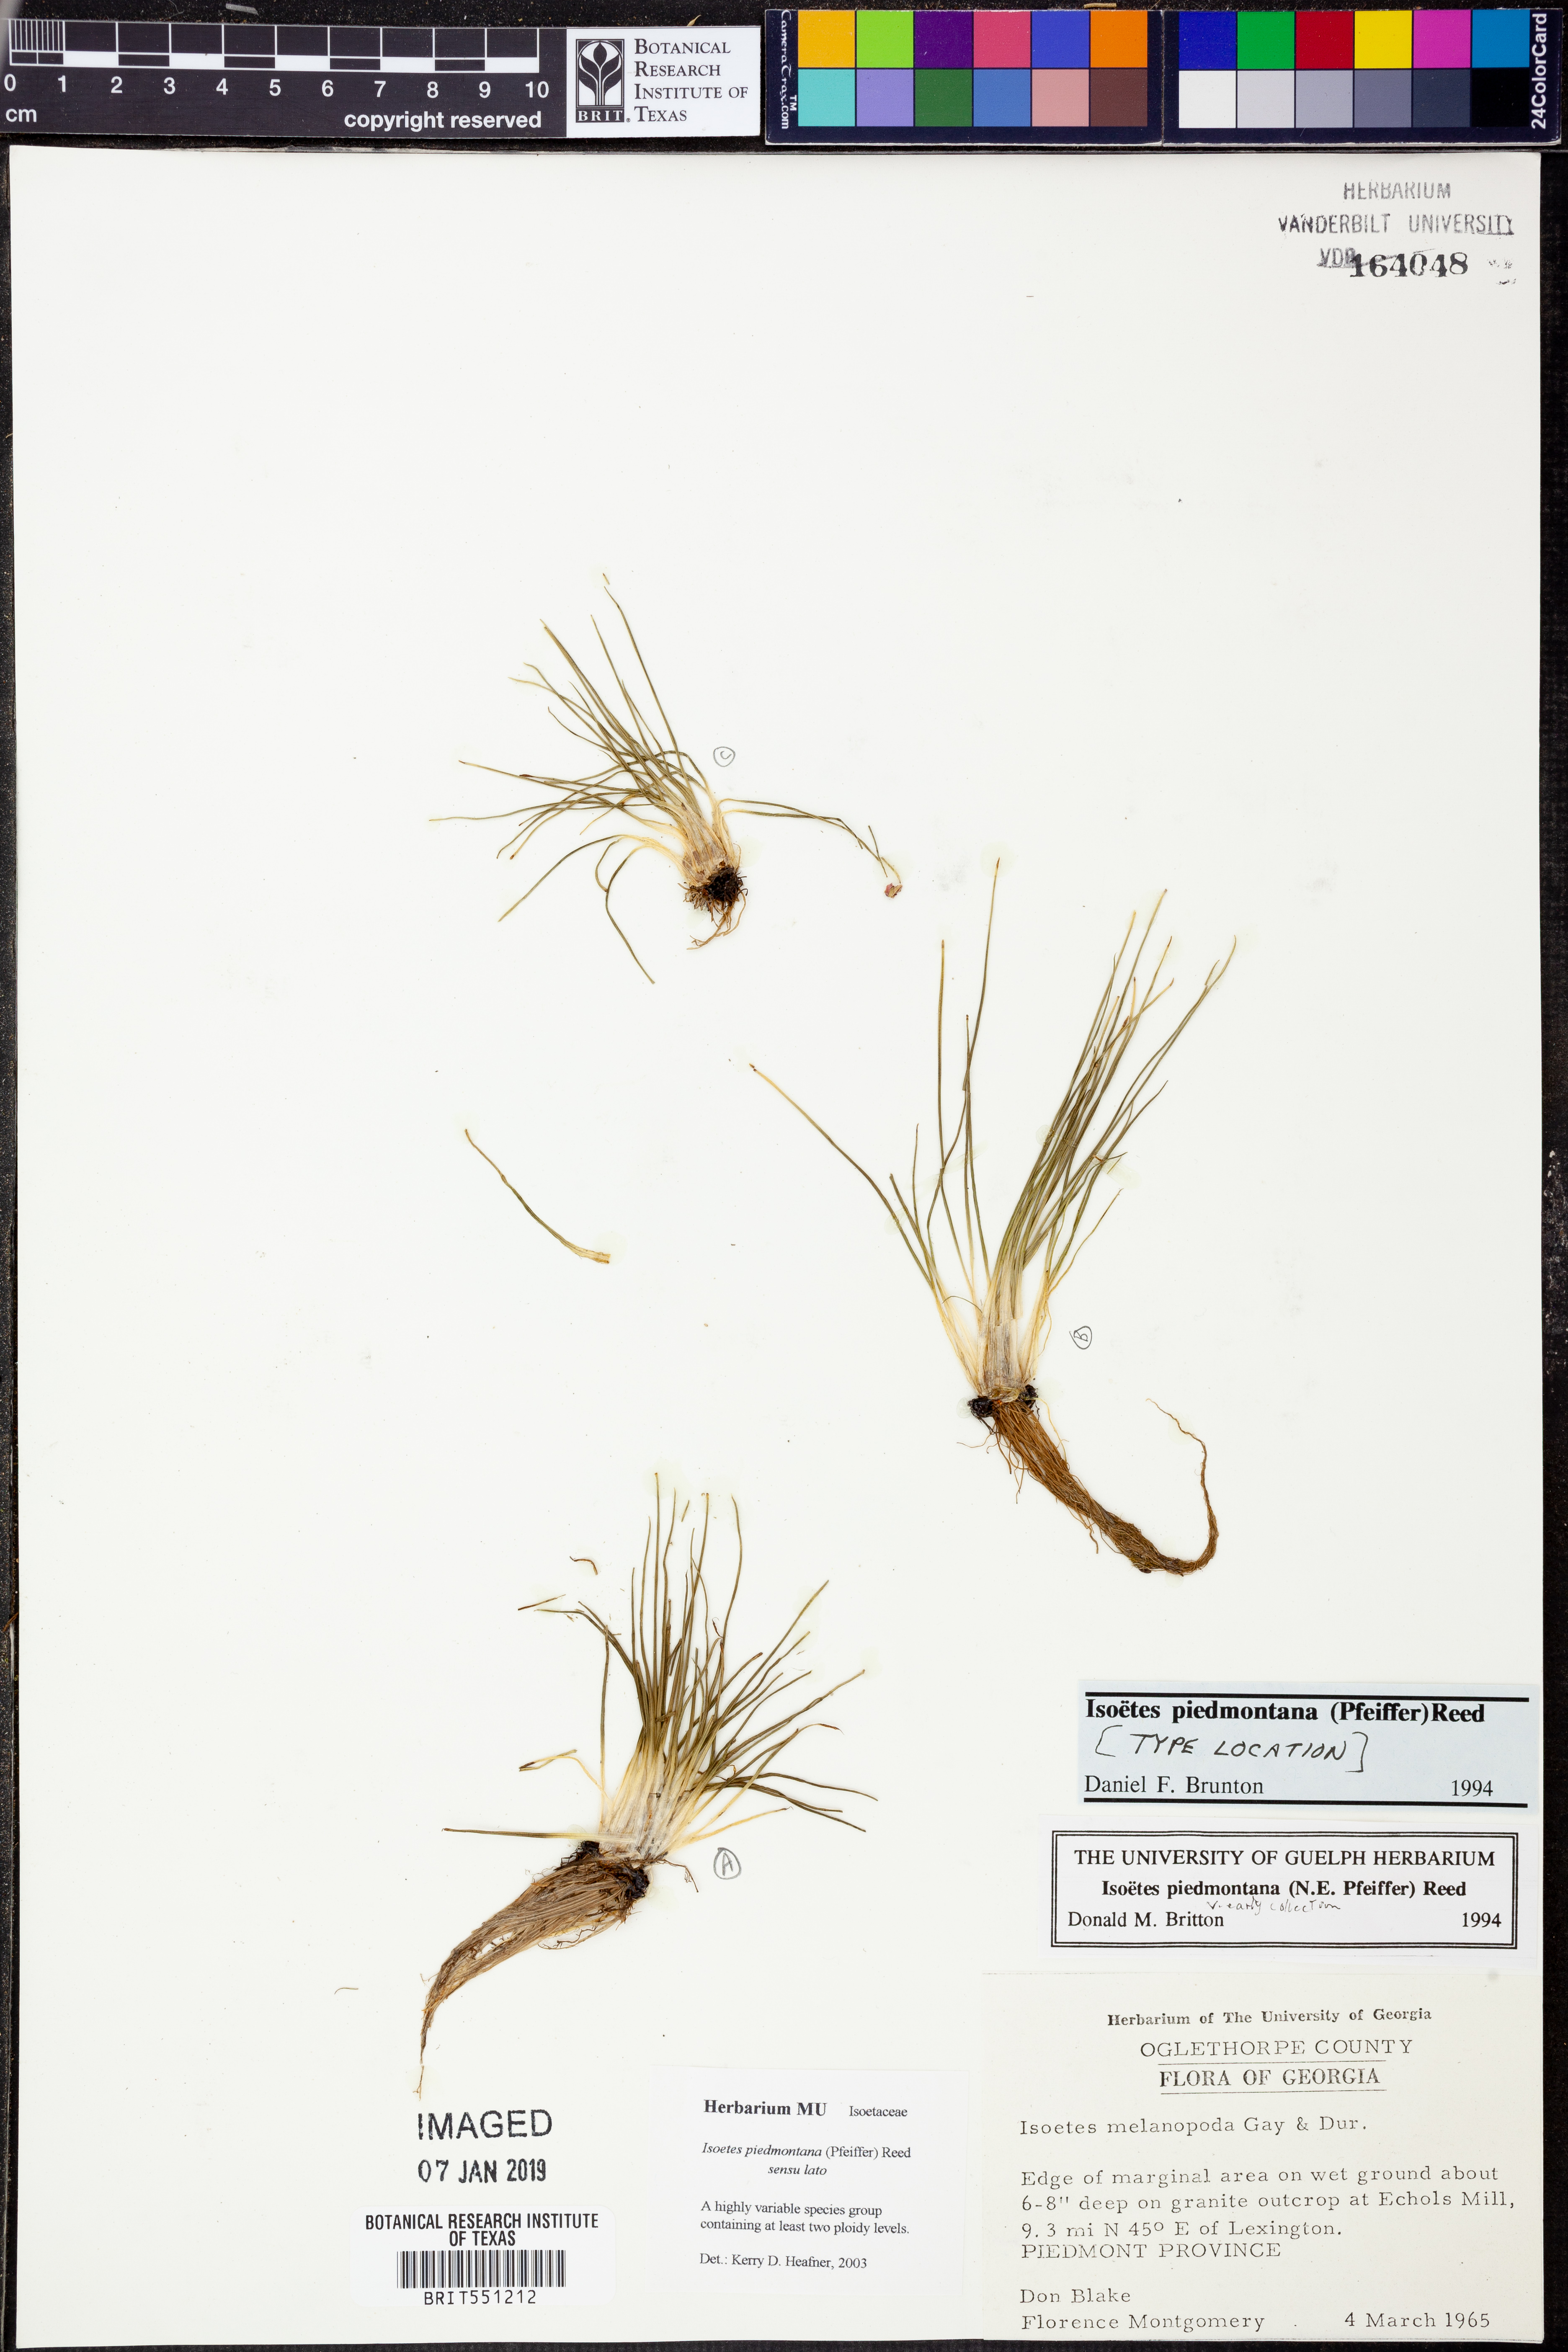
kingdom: Plantae
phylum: Tracheophyta
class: Lycopodiopsida
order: Isoetales
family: Isoetaceae
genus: Isoetes
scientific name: Isoetes virginica
